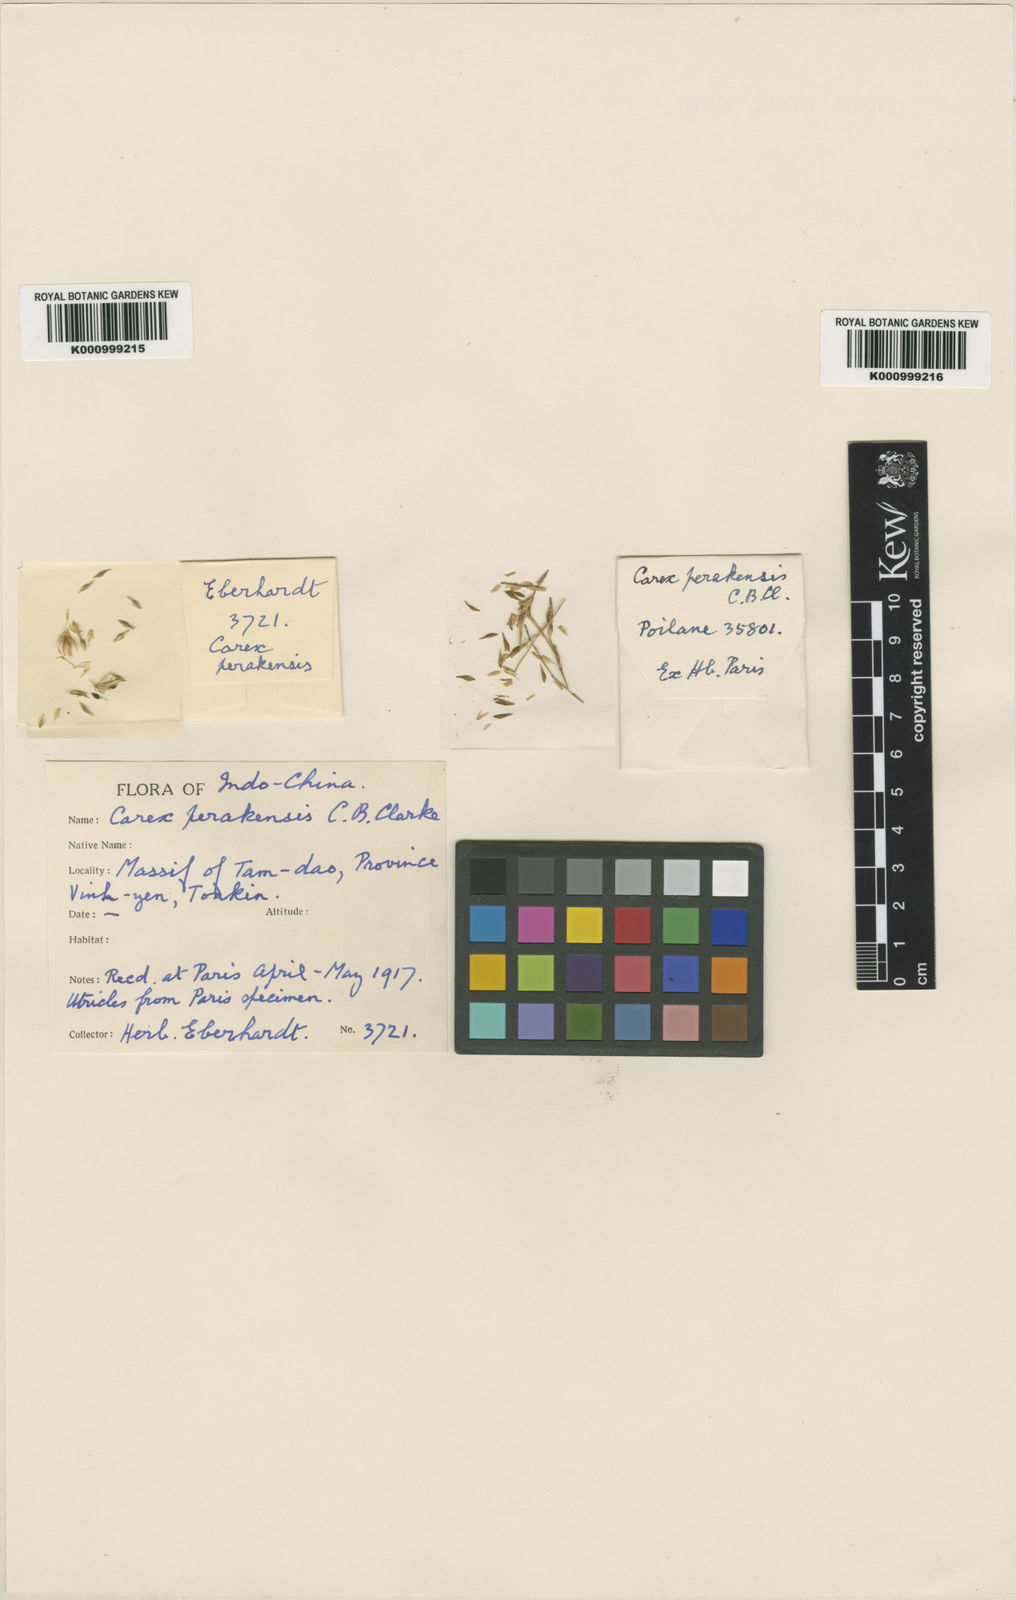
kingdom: Plantae
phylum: Tracheophyta
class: Liliopsida
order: Poales
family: Cyperaceae
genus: Carex
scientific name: Carex perakensis
